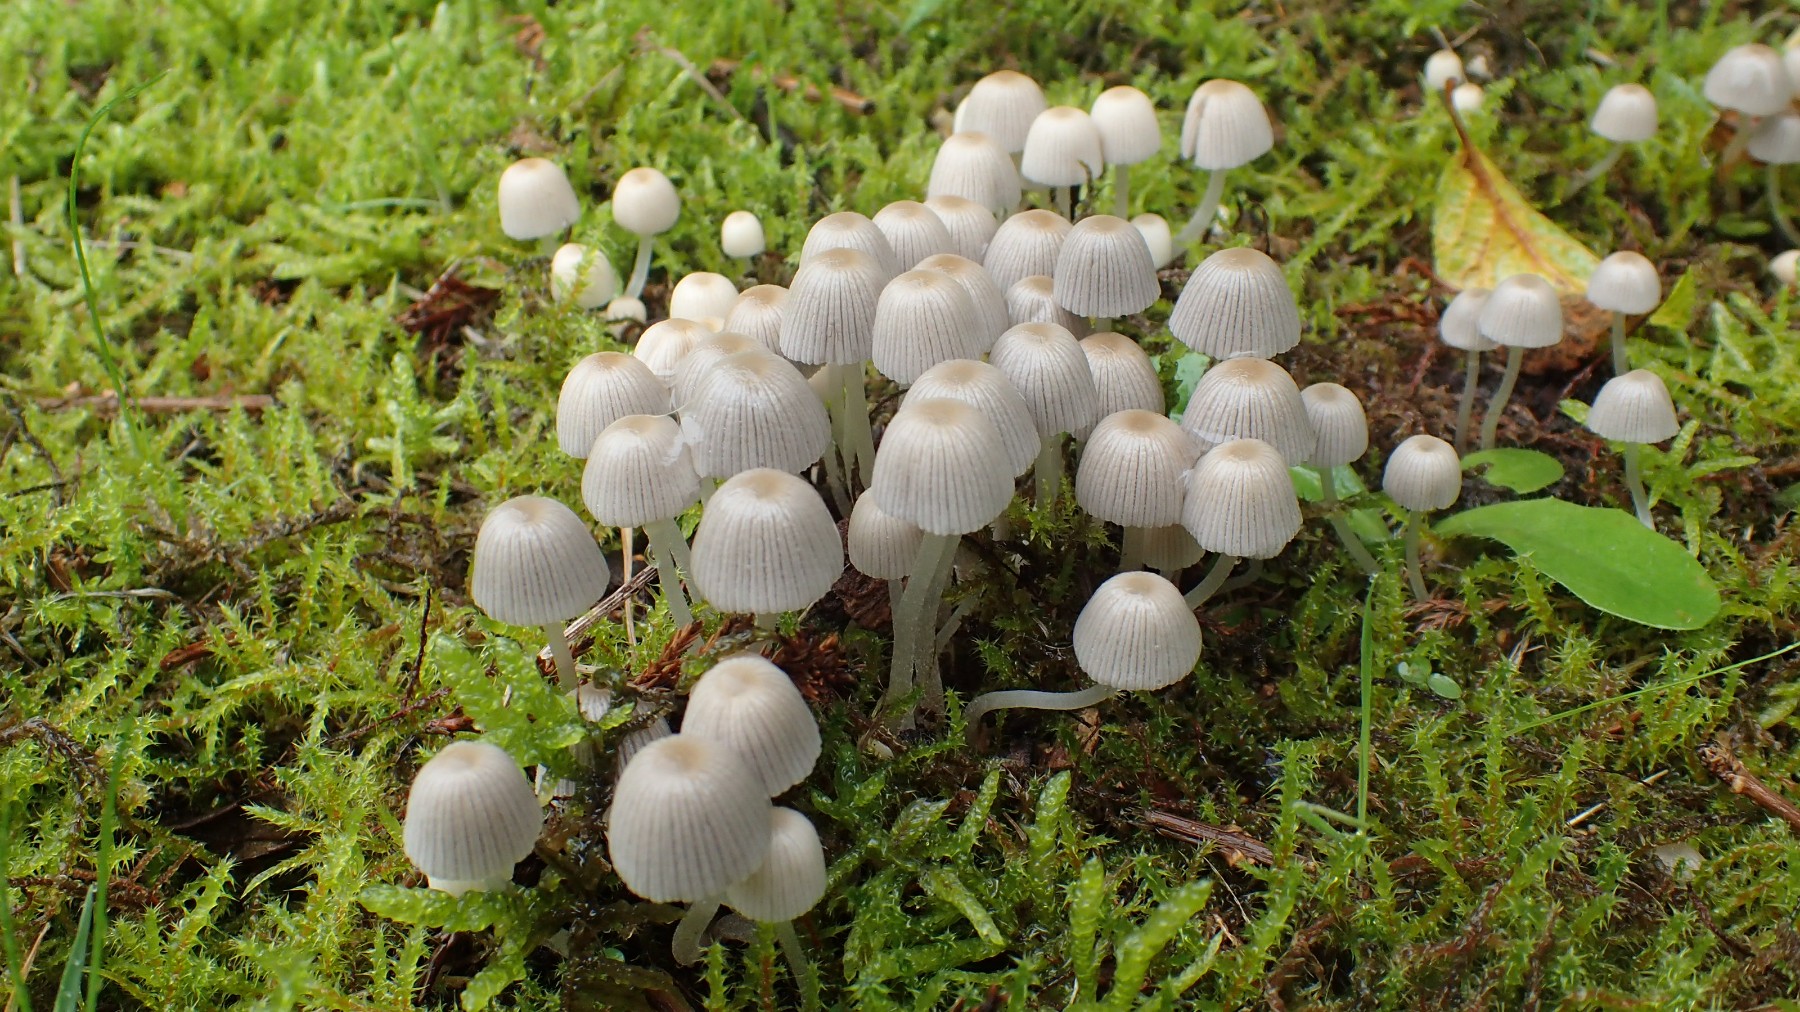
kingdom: Fungi
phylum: Basidiomycota
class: Agaricomycetes
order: Agaricales
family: Psathyrellaceae
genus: Coprinellus
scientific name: Coprinellus disseminatus
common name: bredsået blækhat
